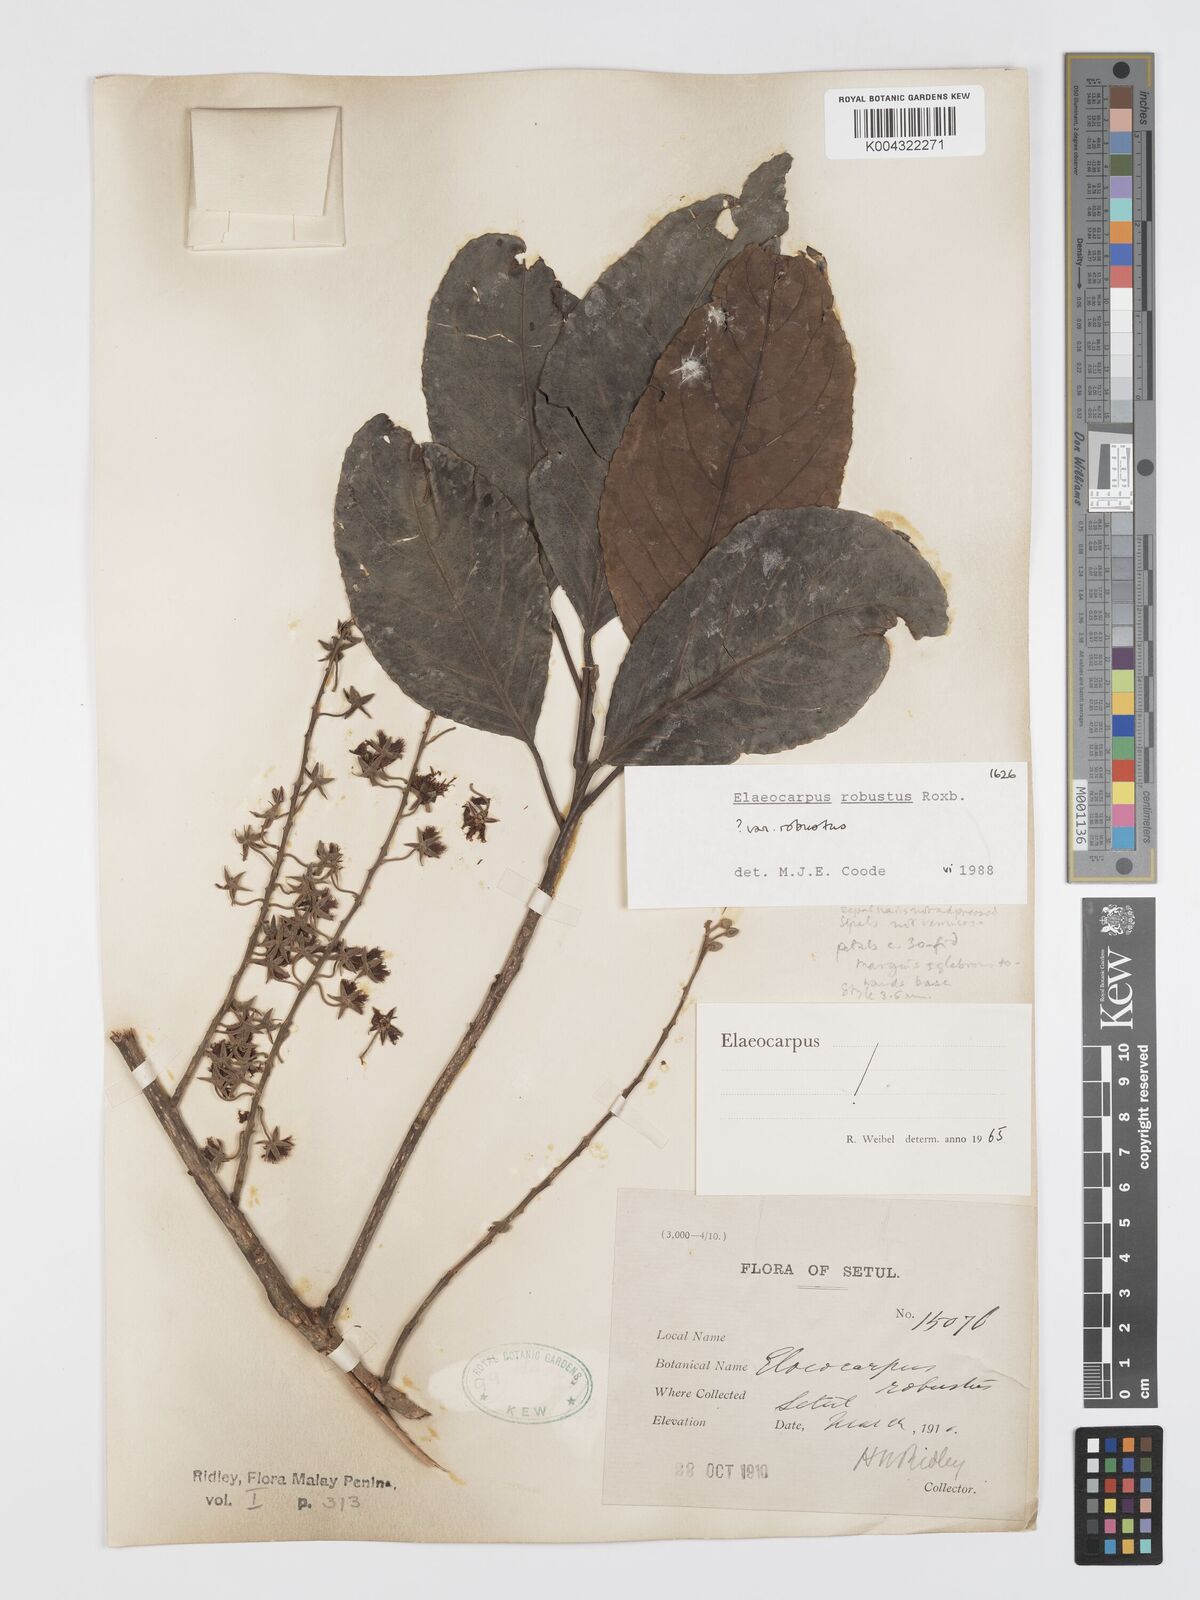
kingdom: Plantae
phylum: Tracheophyta
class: Magnoliopsida
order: Oxalidales
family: Elaeocarpaceae
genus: Elaeocarpus
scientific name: Elaeocarpus robustus
